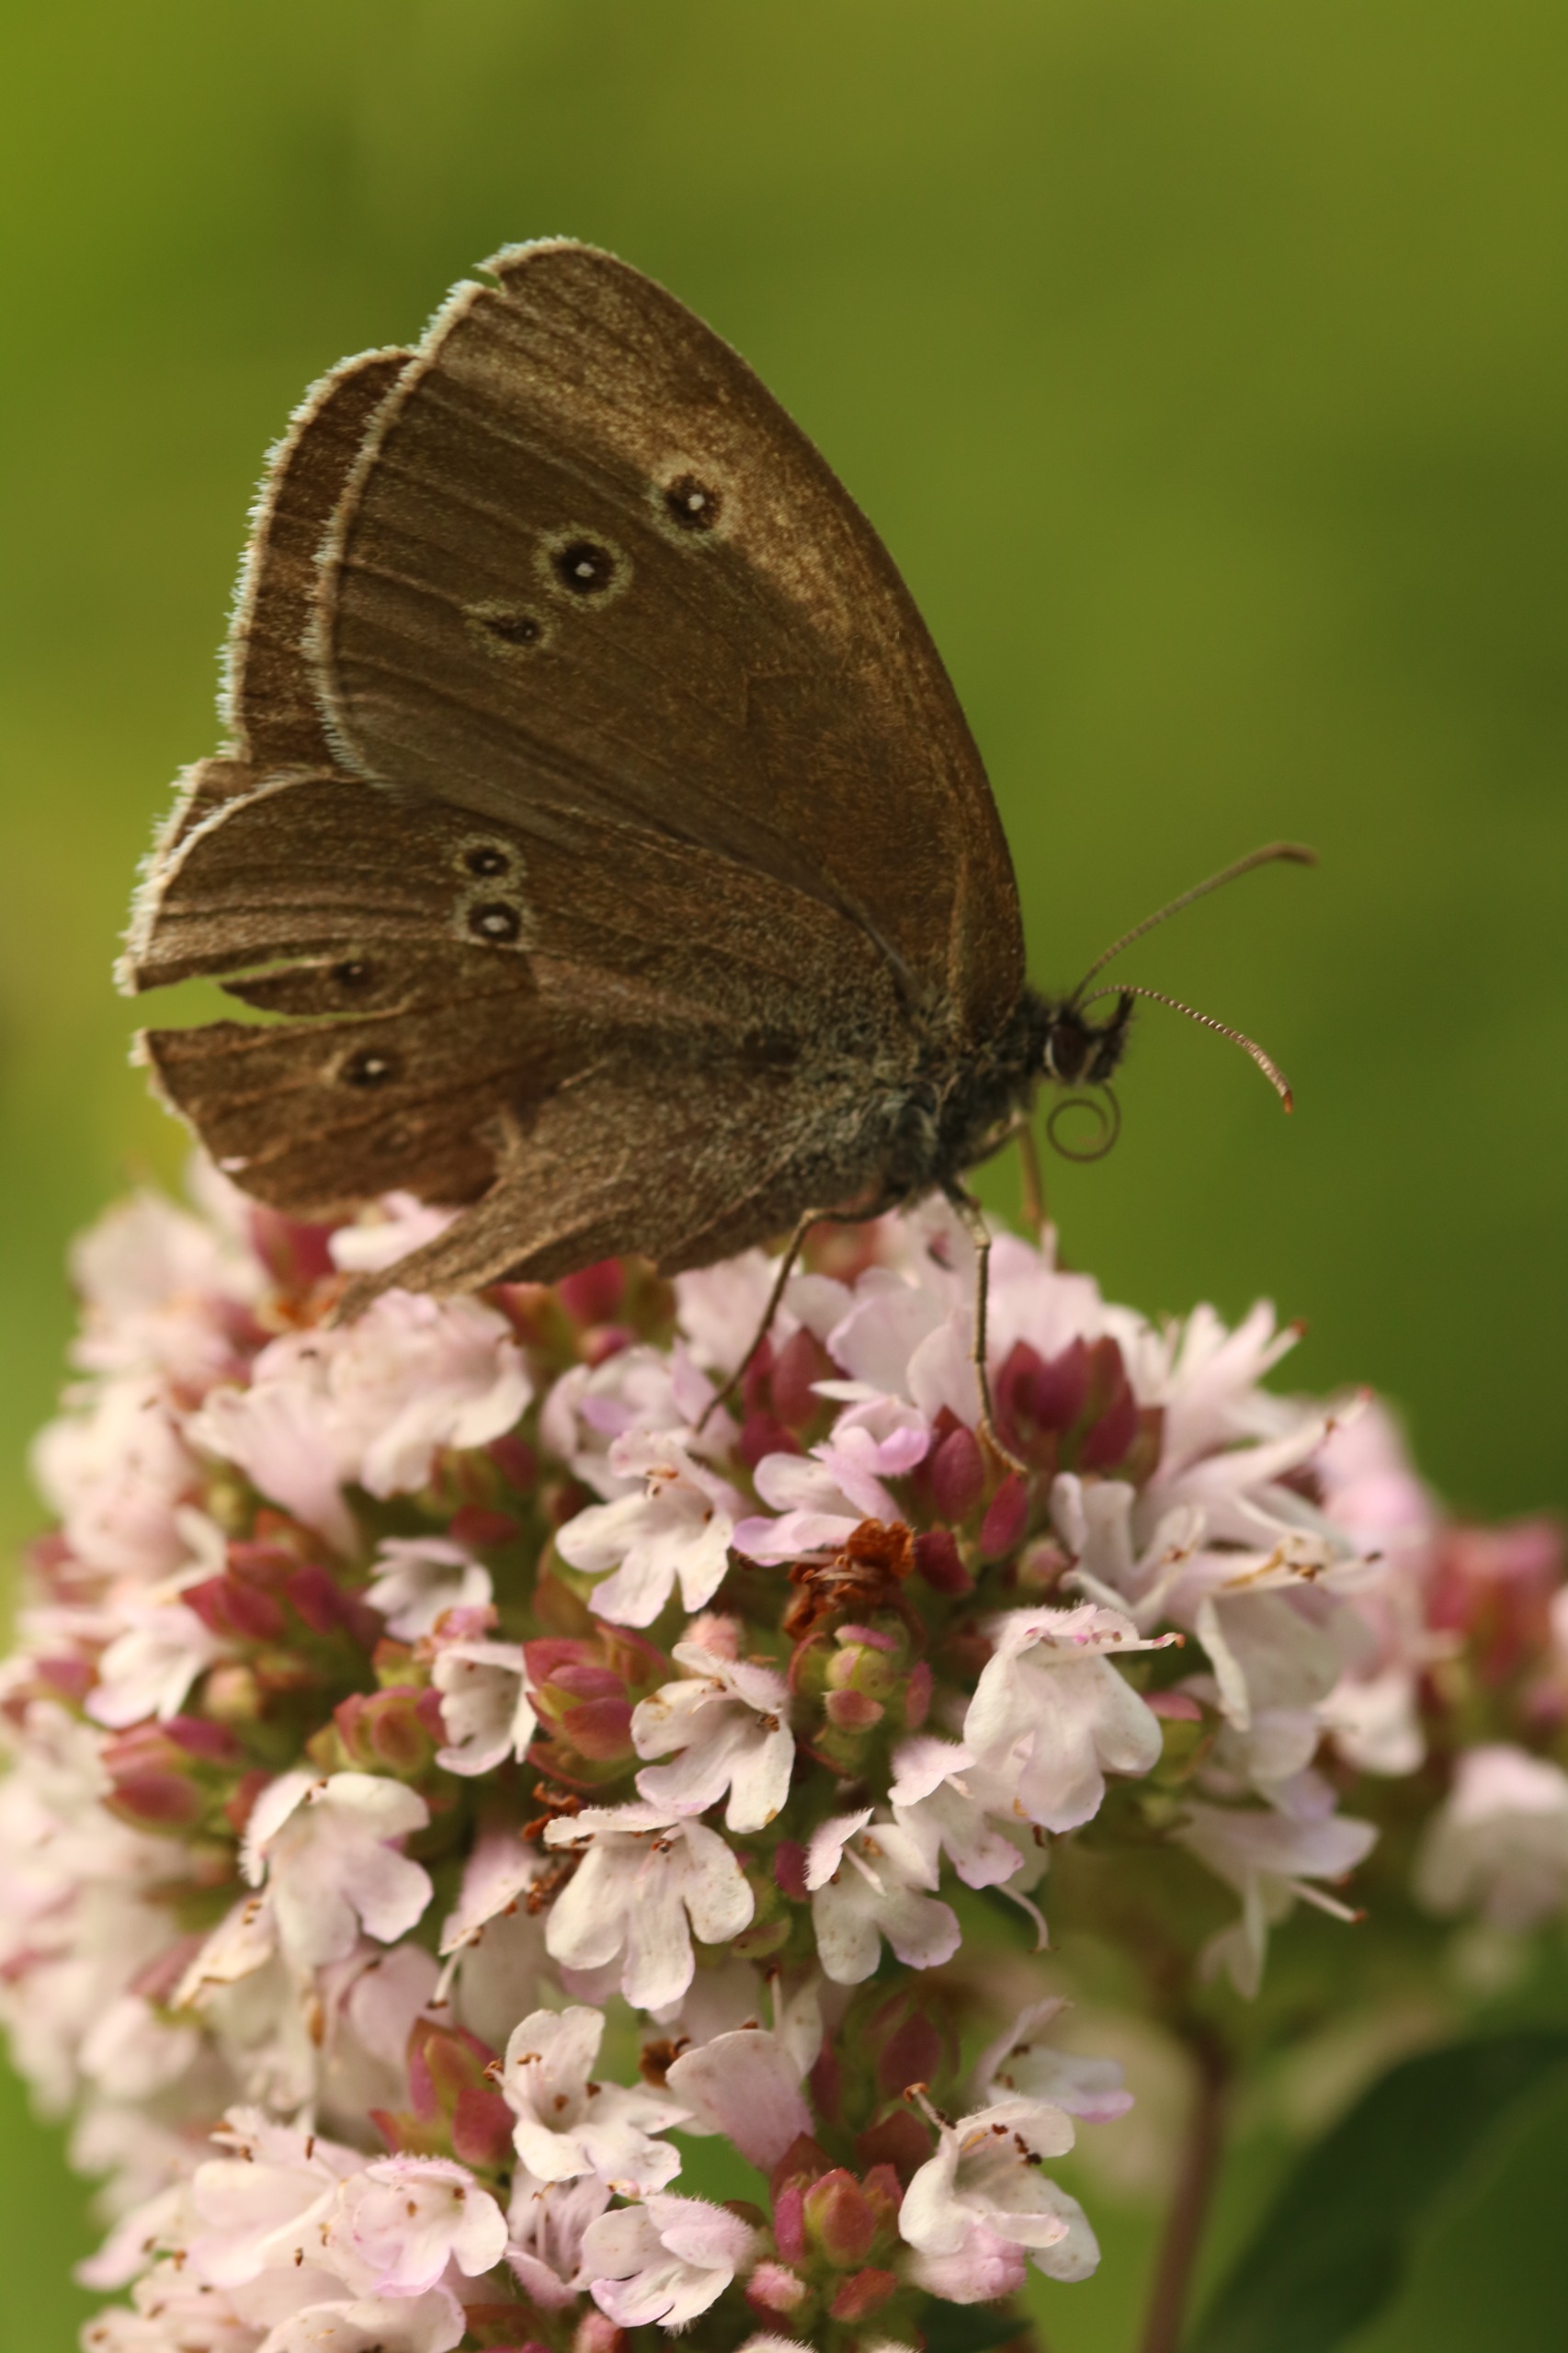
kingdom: Animalia
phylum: Arthropoda
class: Insecta
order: Lepidoptera
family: Nymphalidae
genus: Aphantopus
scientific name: Aphantopus hyperantus
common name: Engrandøje
